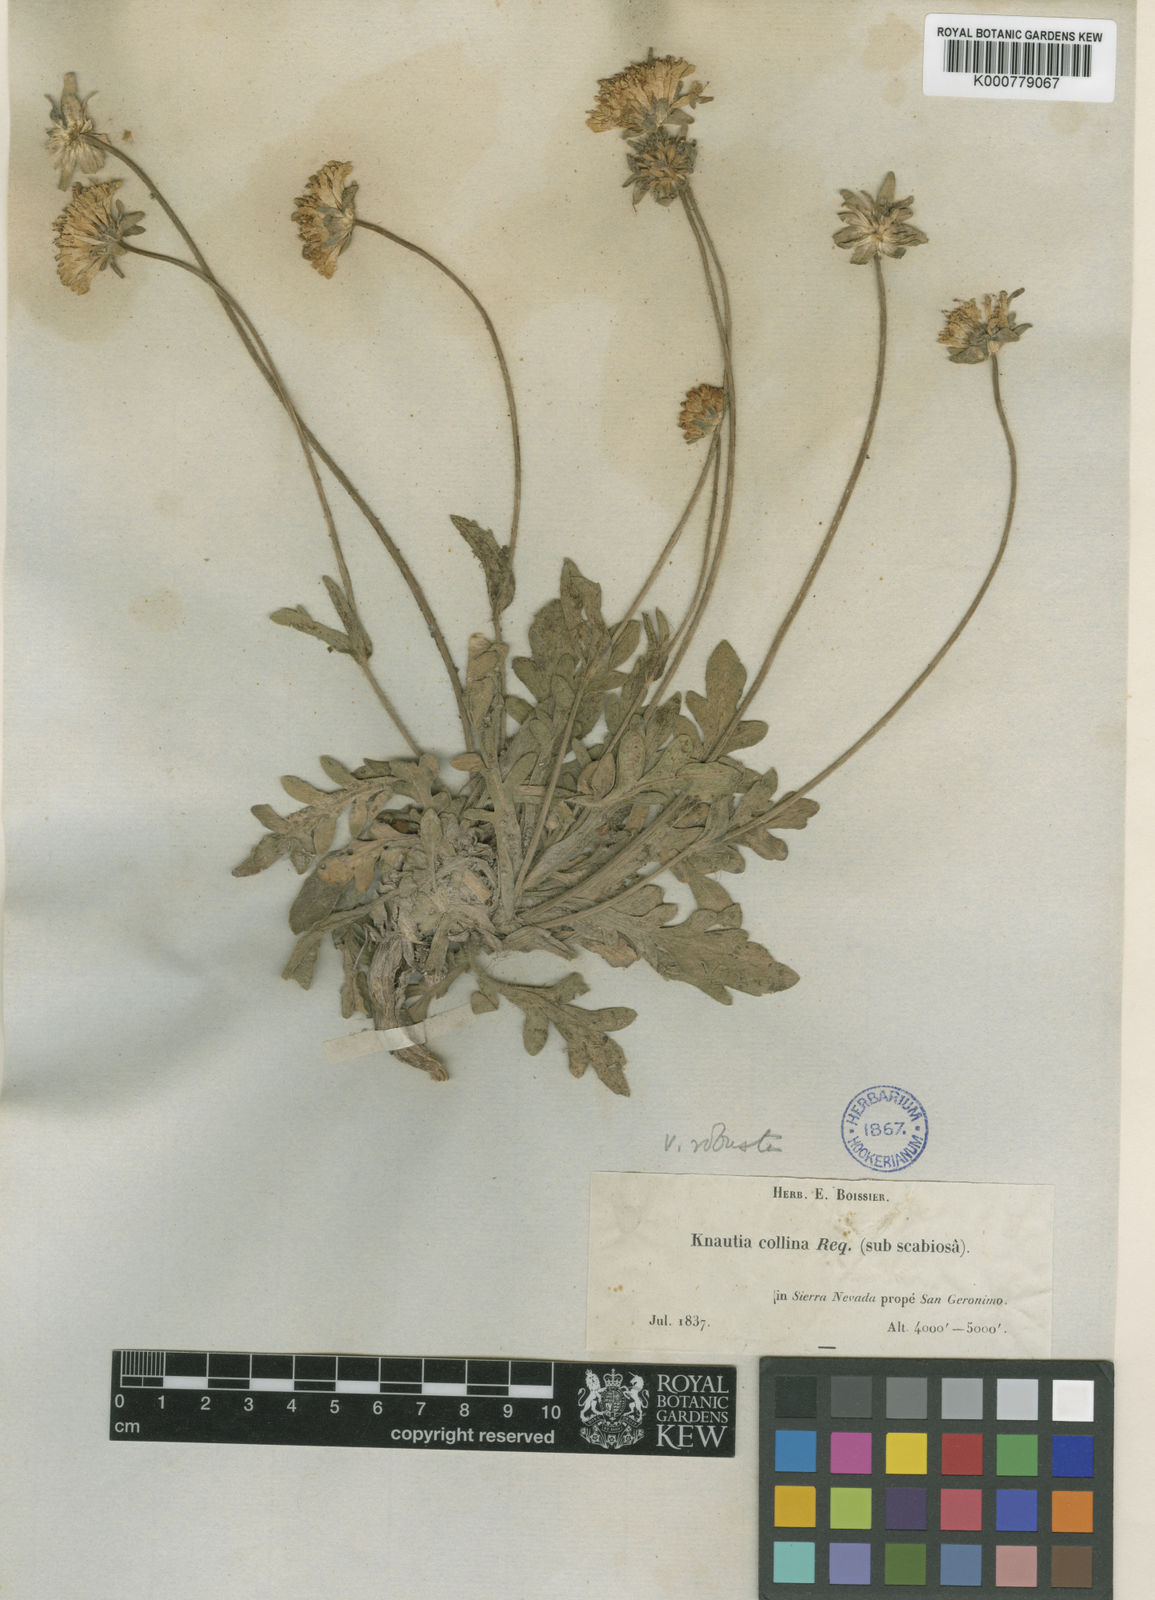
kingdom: Plantae
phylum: Tracheophyta
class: Magnoliopsida
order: Dipsacales
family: Caprifoliaceae
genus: Knautia
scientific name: Knautia subscaposa
